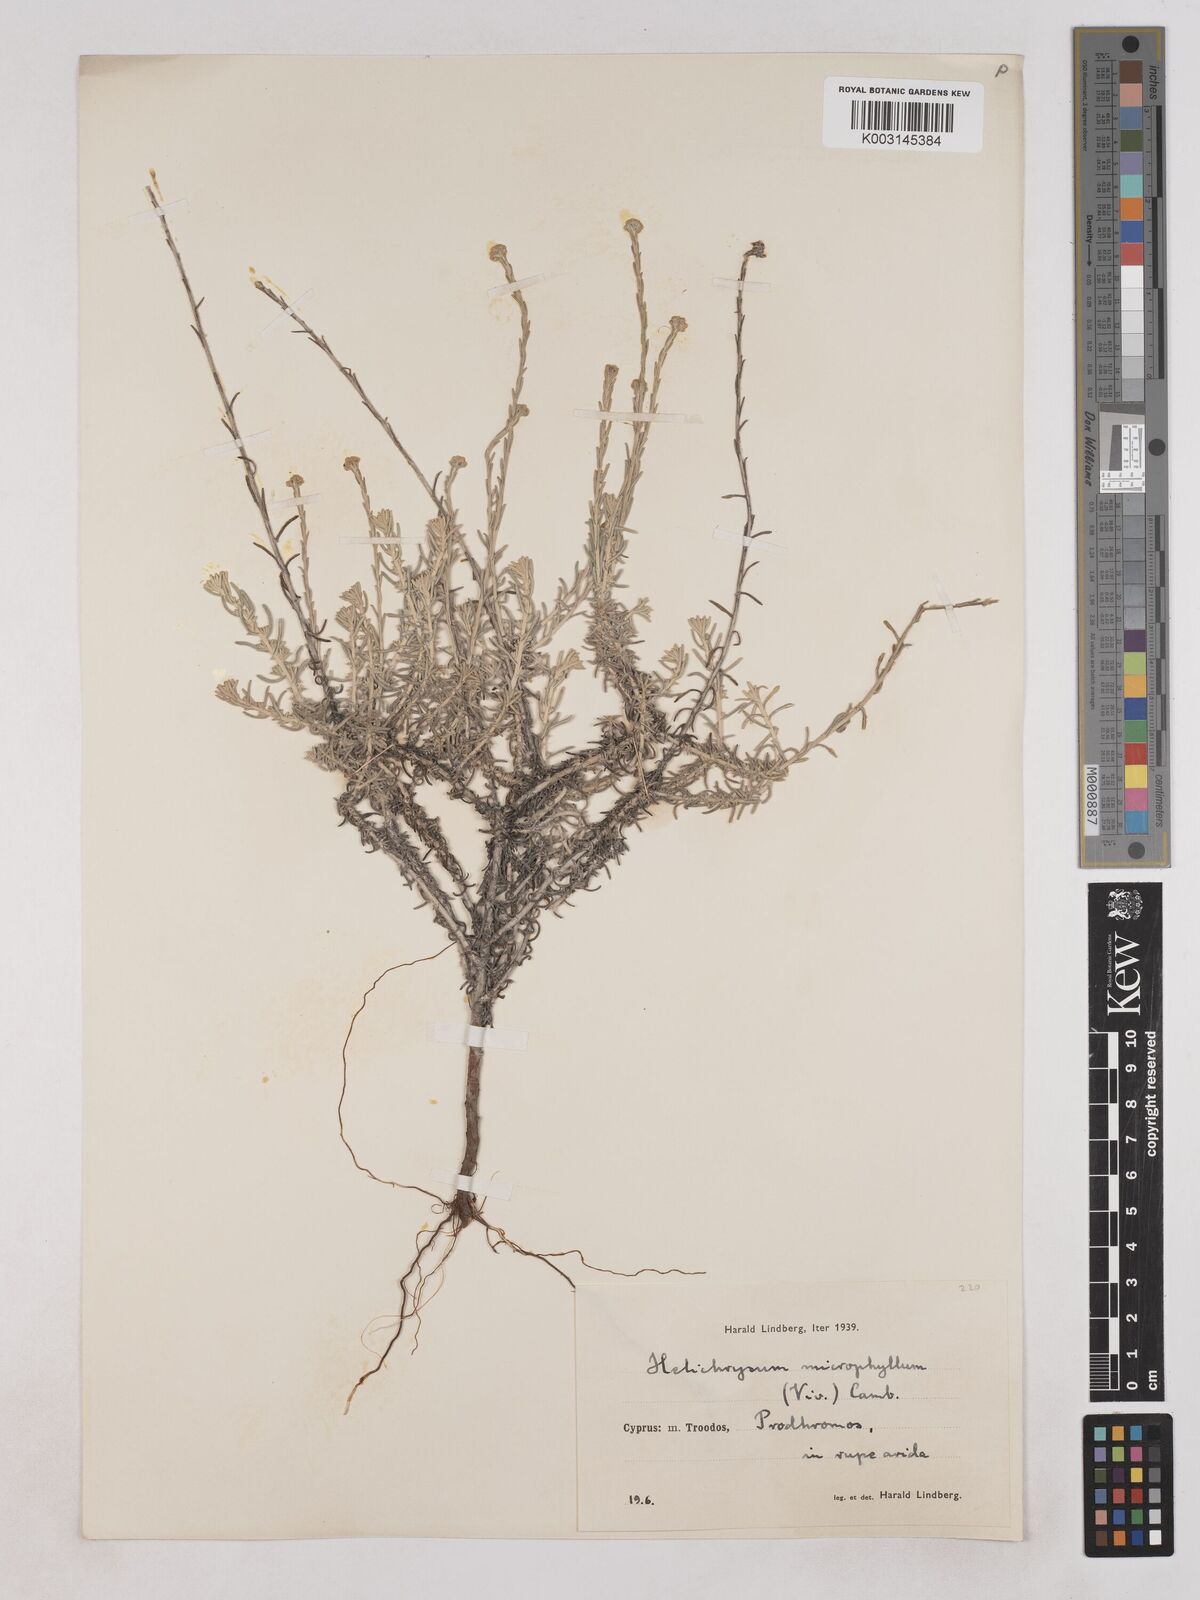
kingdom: Plantae
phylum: Tracheophyta
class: Magnoliopsida
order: Asterales
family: Asteraceae
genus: Helichrysum
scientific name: Helichrysum italicum
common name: Curryplant
